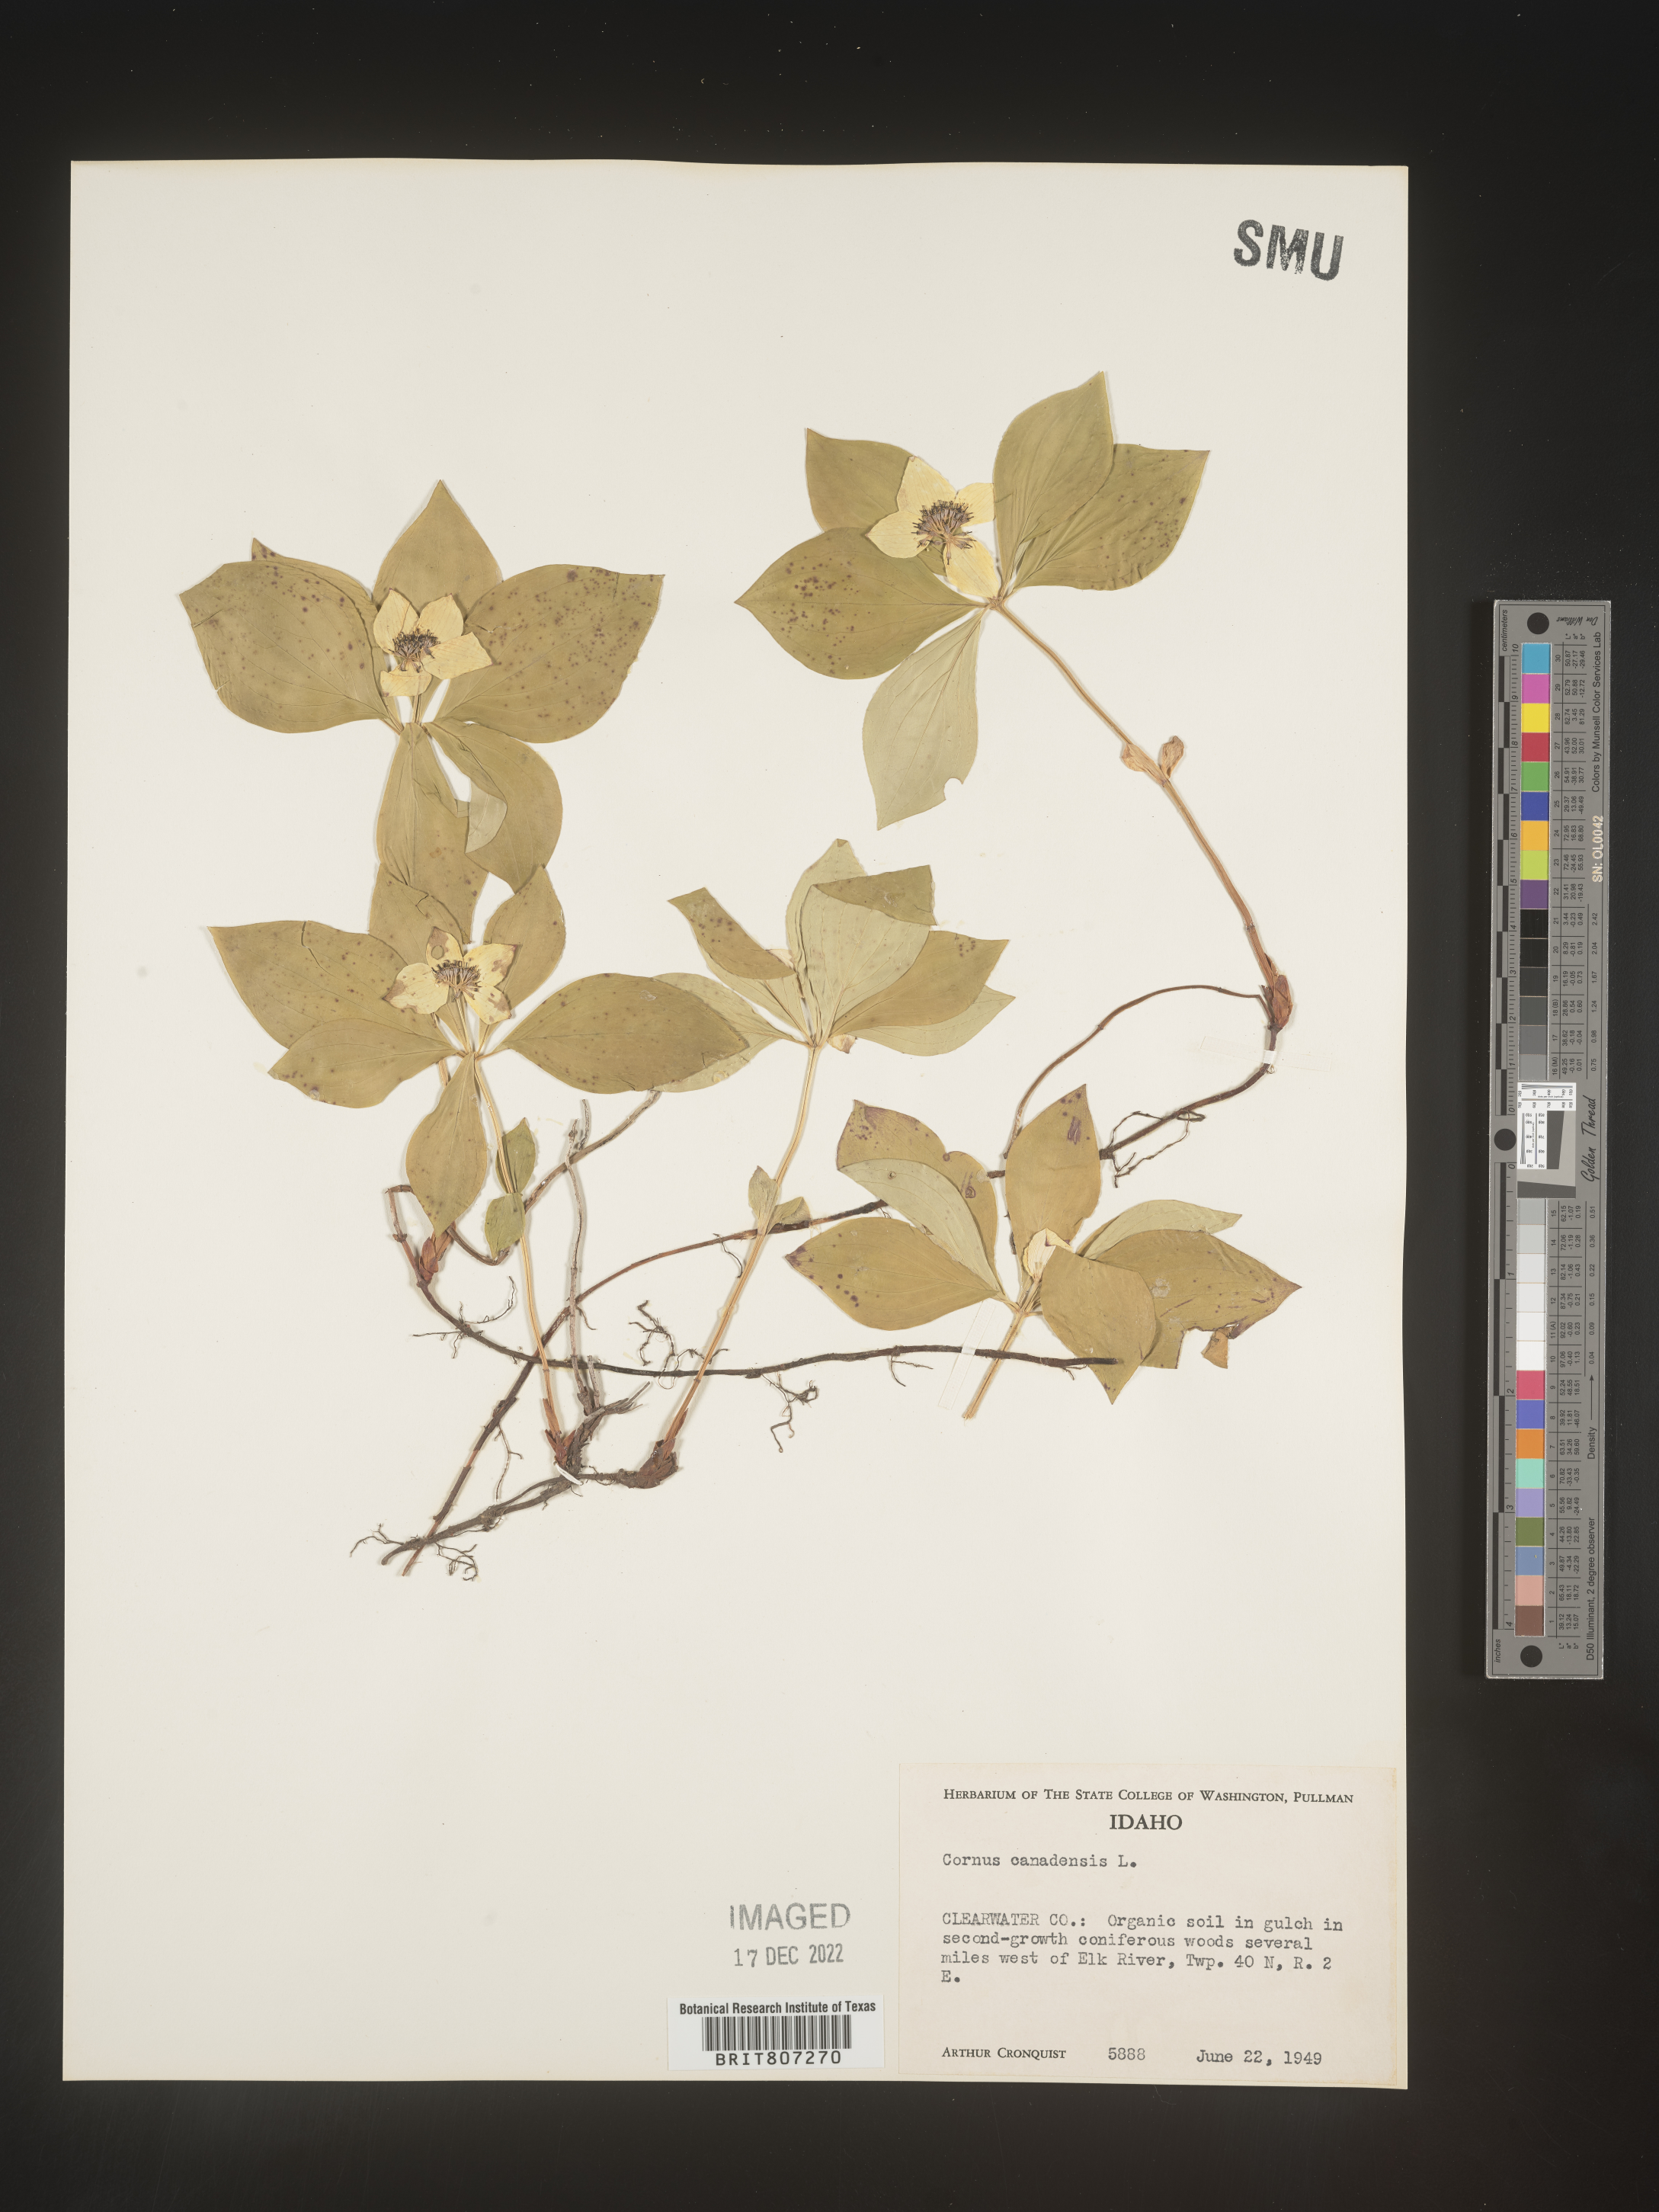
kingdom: Plantae
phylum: Tracheophyta
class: Magnoliopsida
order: Cornales
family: Cornaceae
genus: Cornus
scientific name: Cornus canadensis
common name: Creeping dogwood
